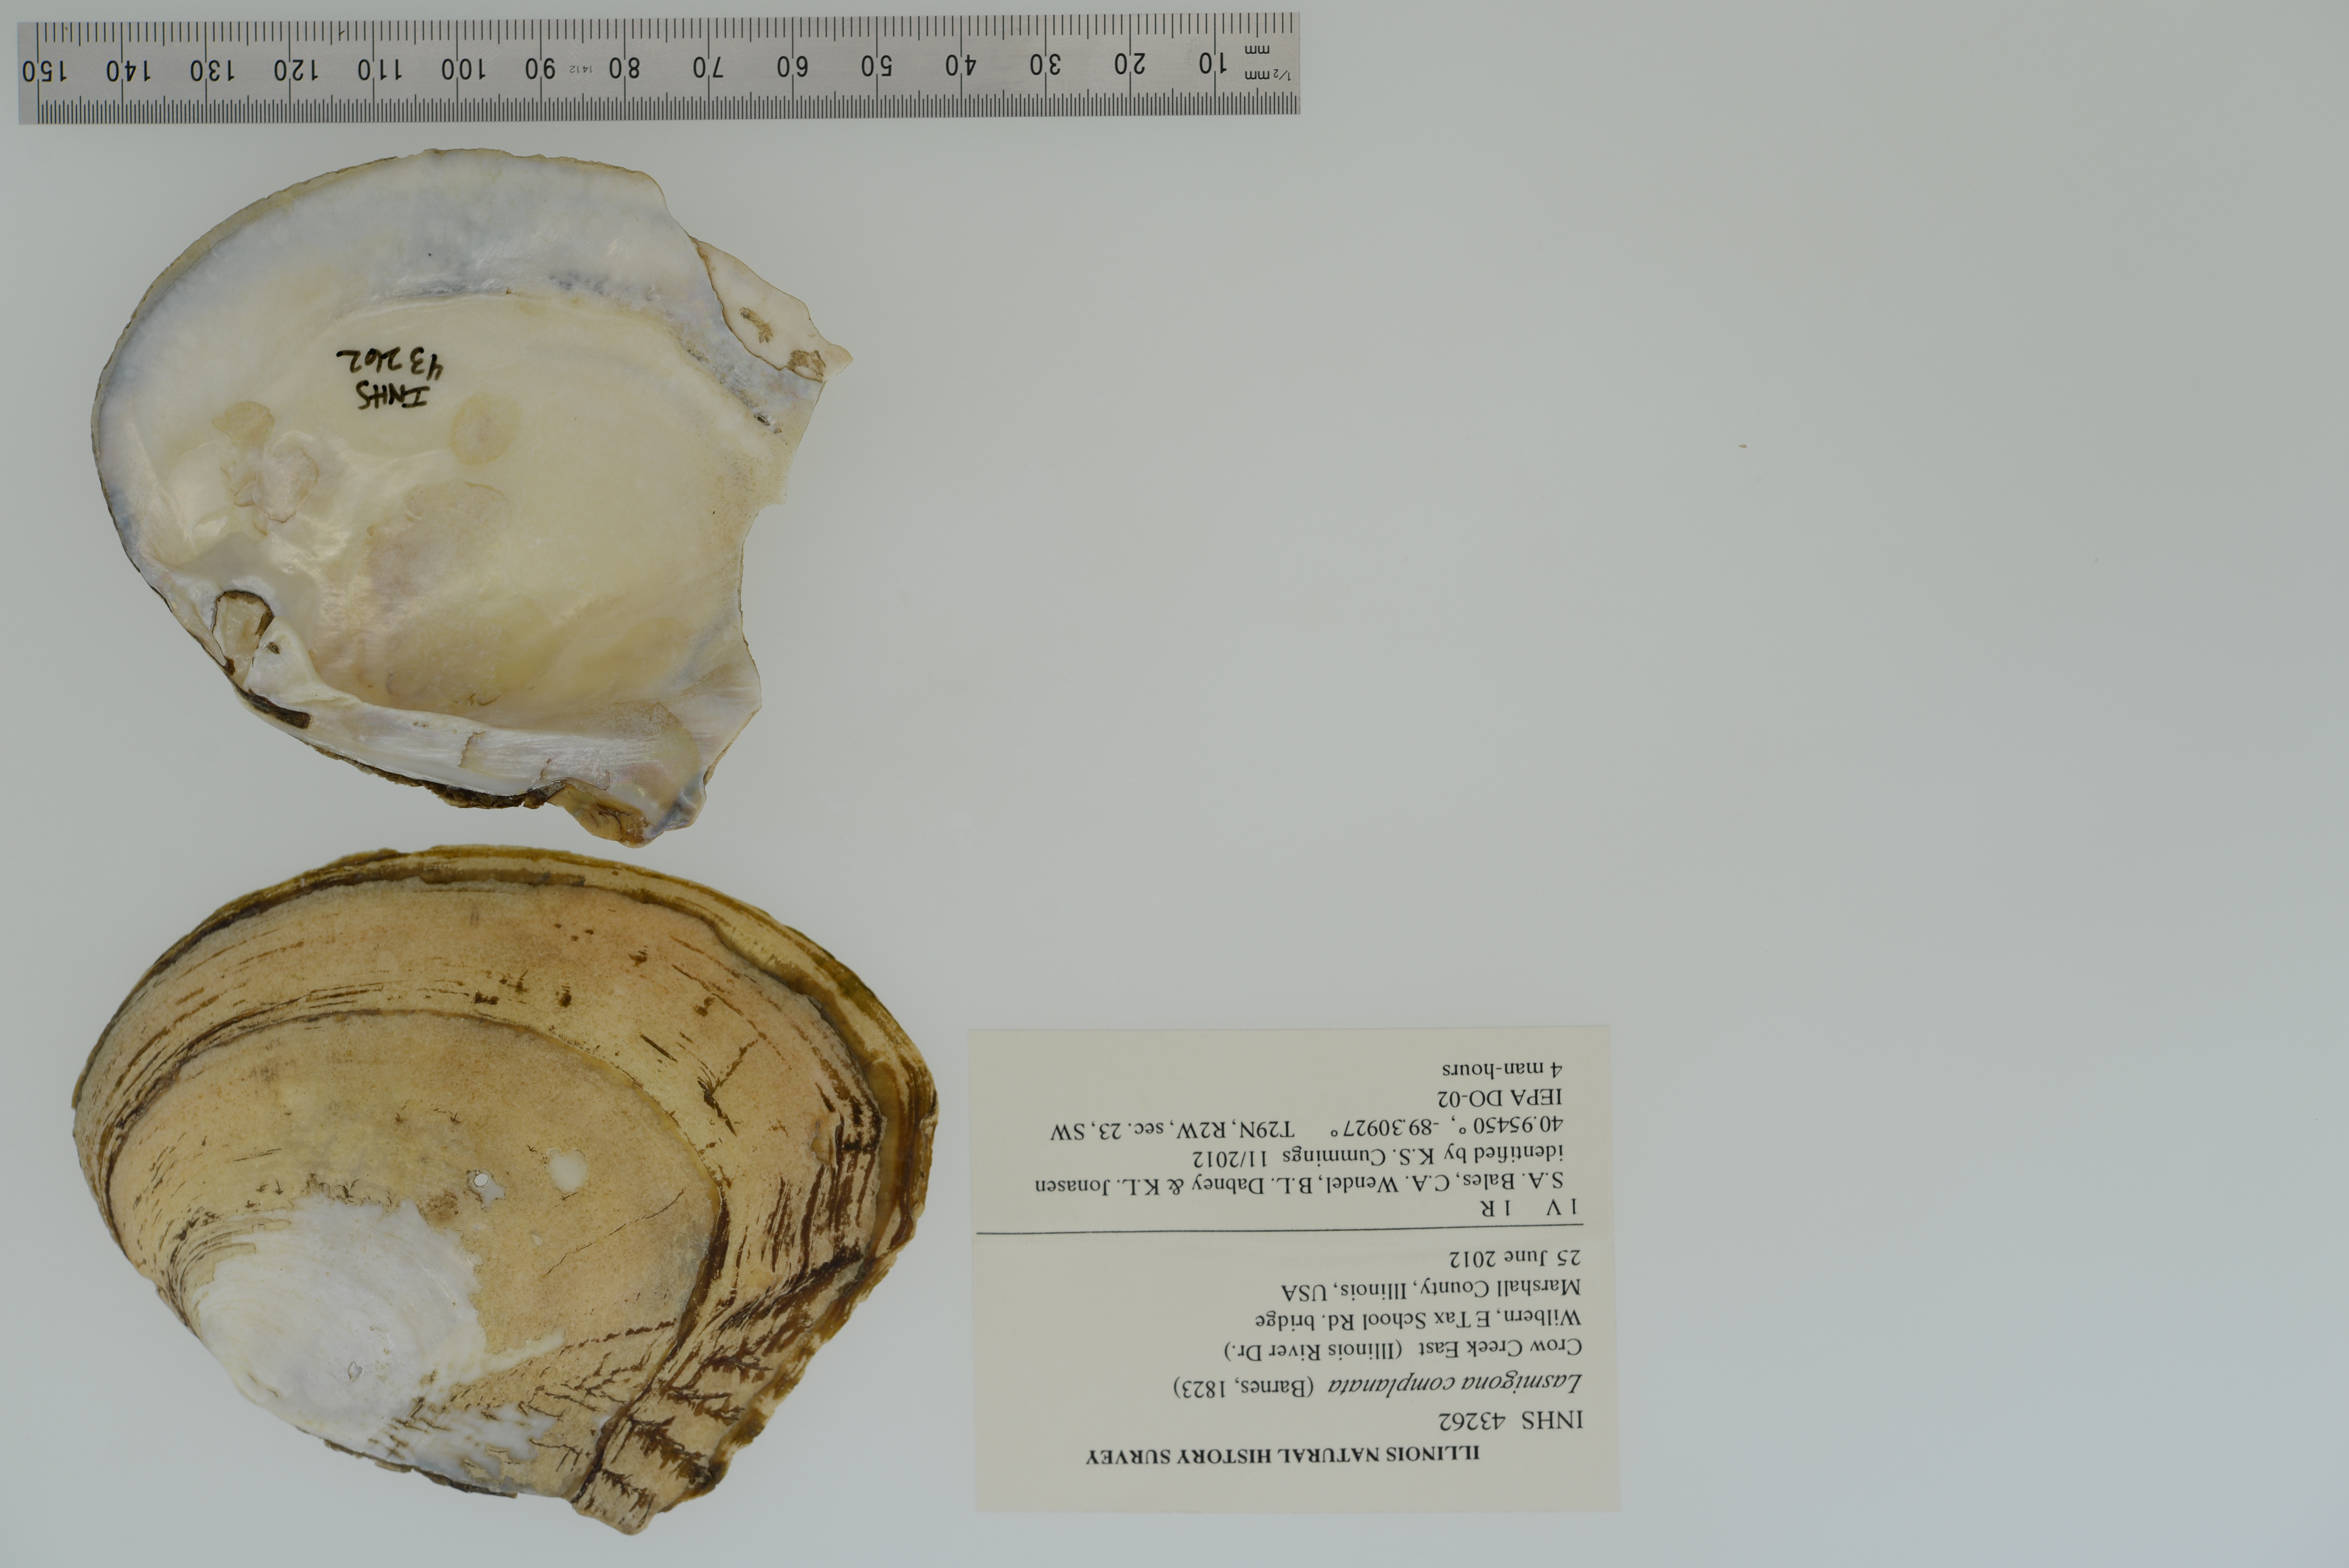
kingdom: Animalia
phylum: Mollusca
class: Bivalvia
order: Unionida
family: Unionidae
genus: Lasmigona
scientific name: Lasmigona complanata
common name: White heelsplitter
